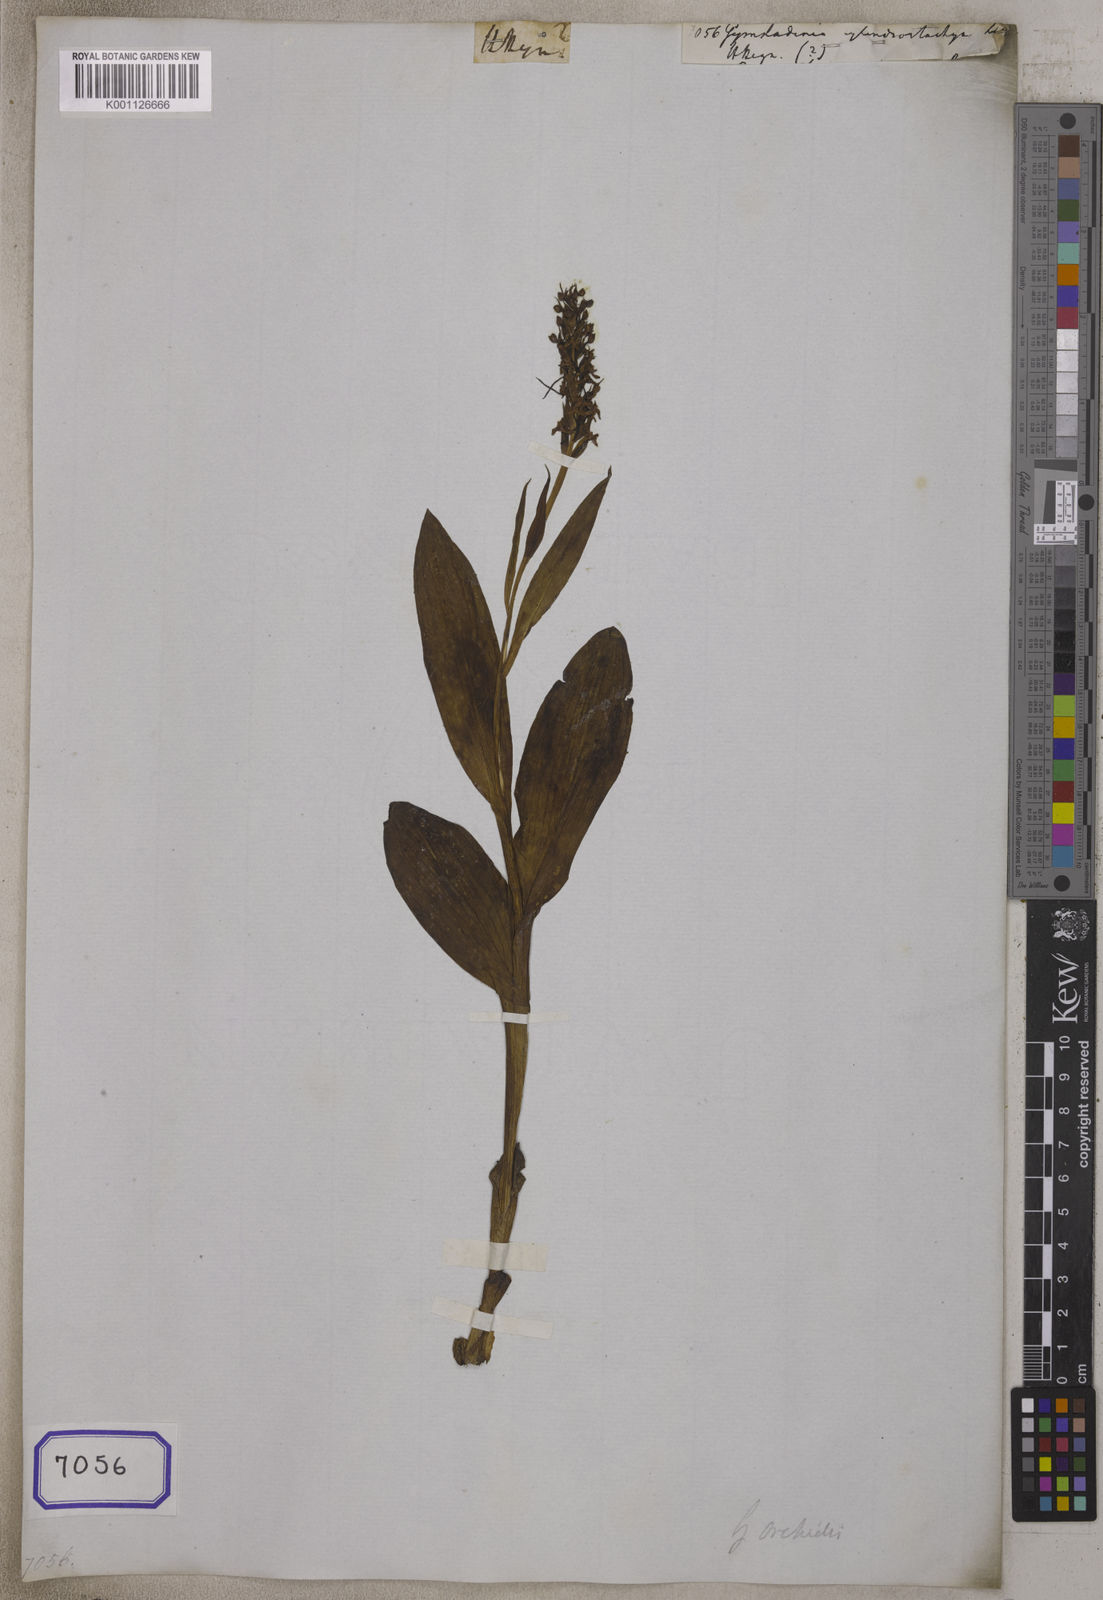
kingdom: Plantae
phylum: Tracheophyta
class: Liliopsida
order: Asparagales
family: Orchidaceae
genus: Gymnadenia
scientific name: Gymnadenia orchidis
